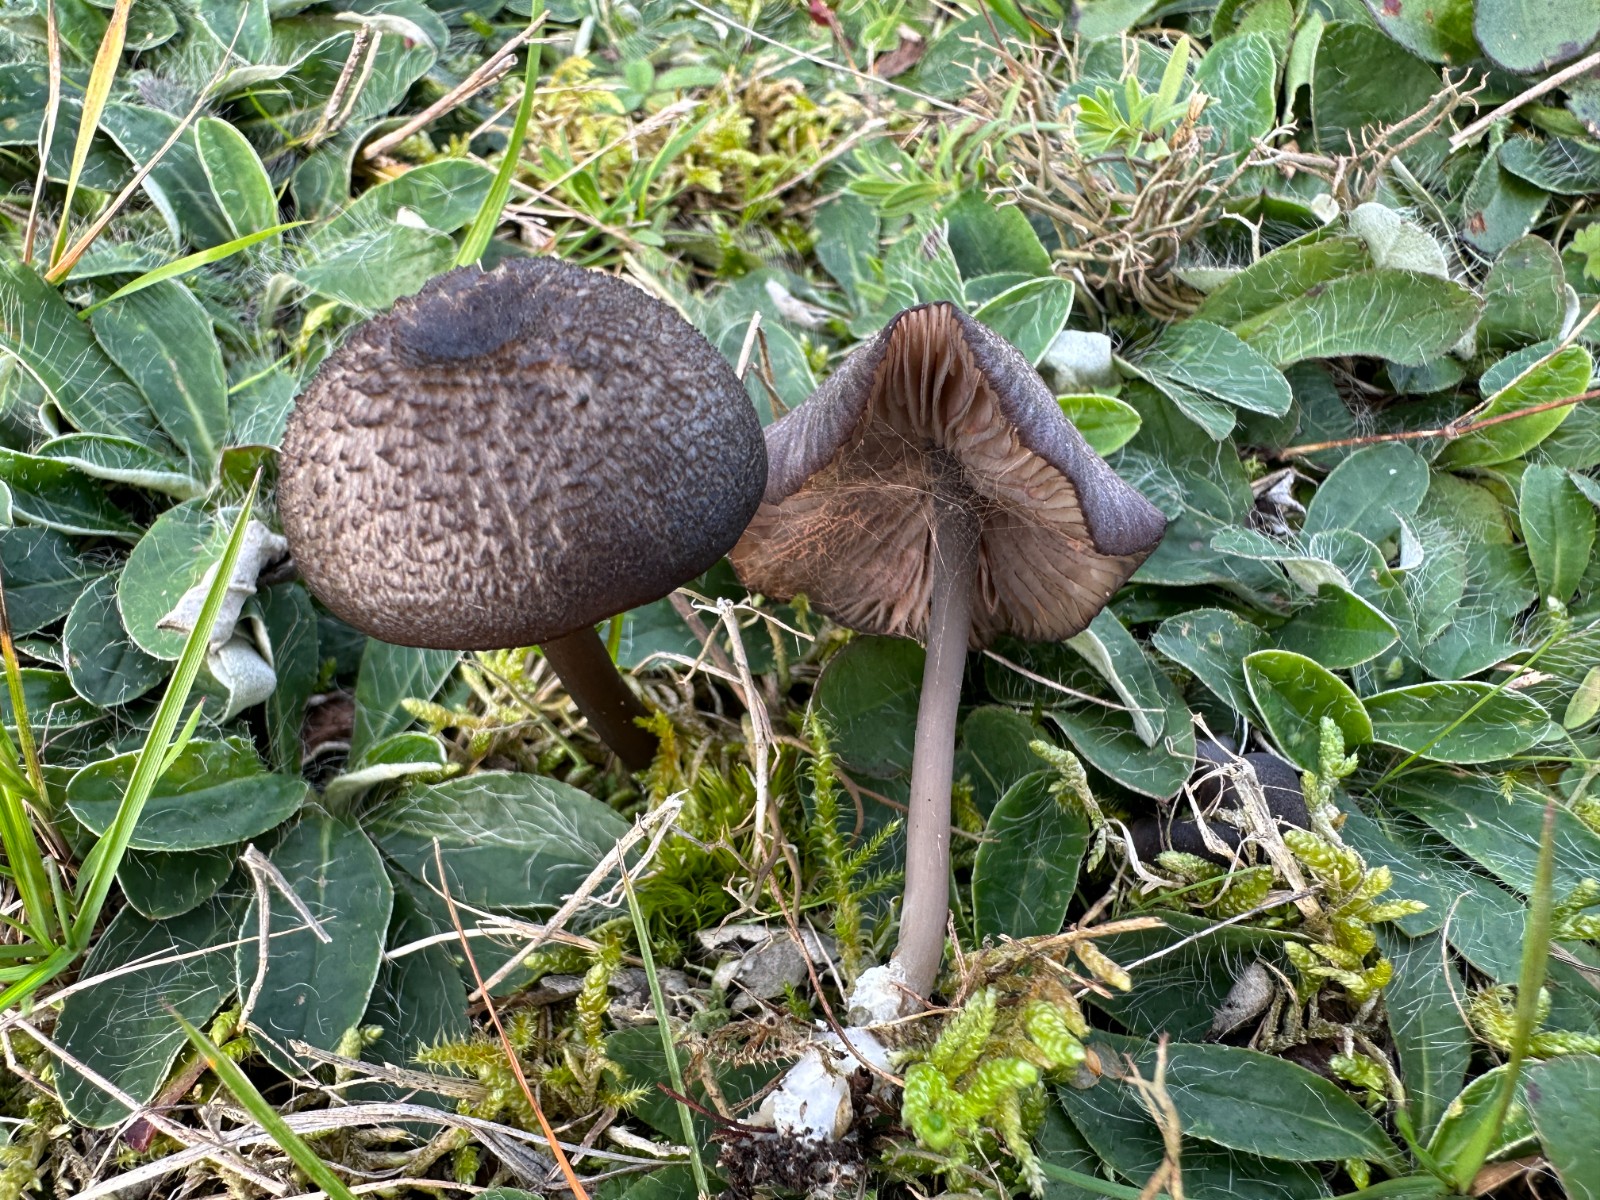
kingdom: Fungi
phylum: Basidiomycota
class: Agaricomycetes
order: Agaricales
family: Entolomataceae
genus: Entoloma
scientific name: Entoloma
